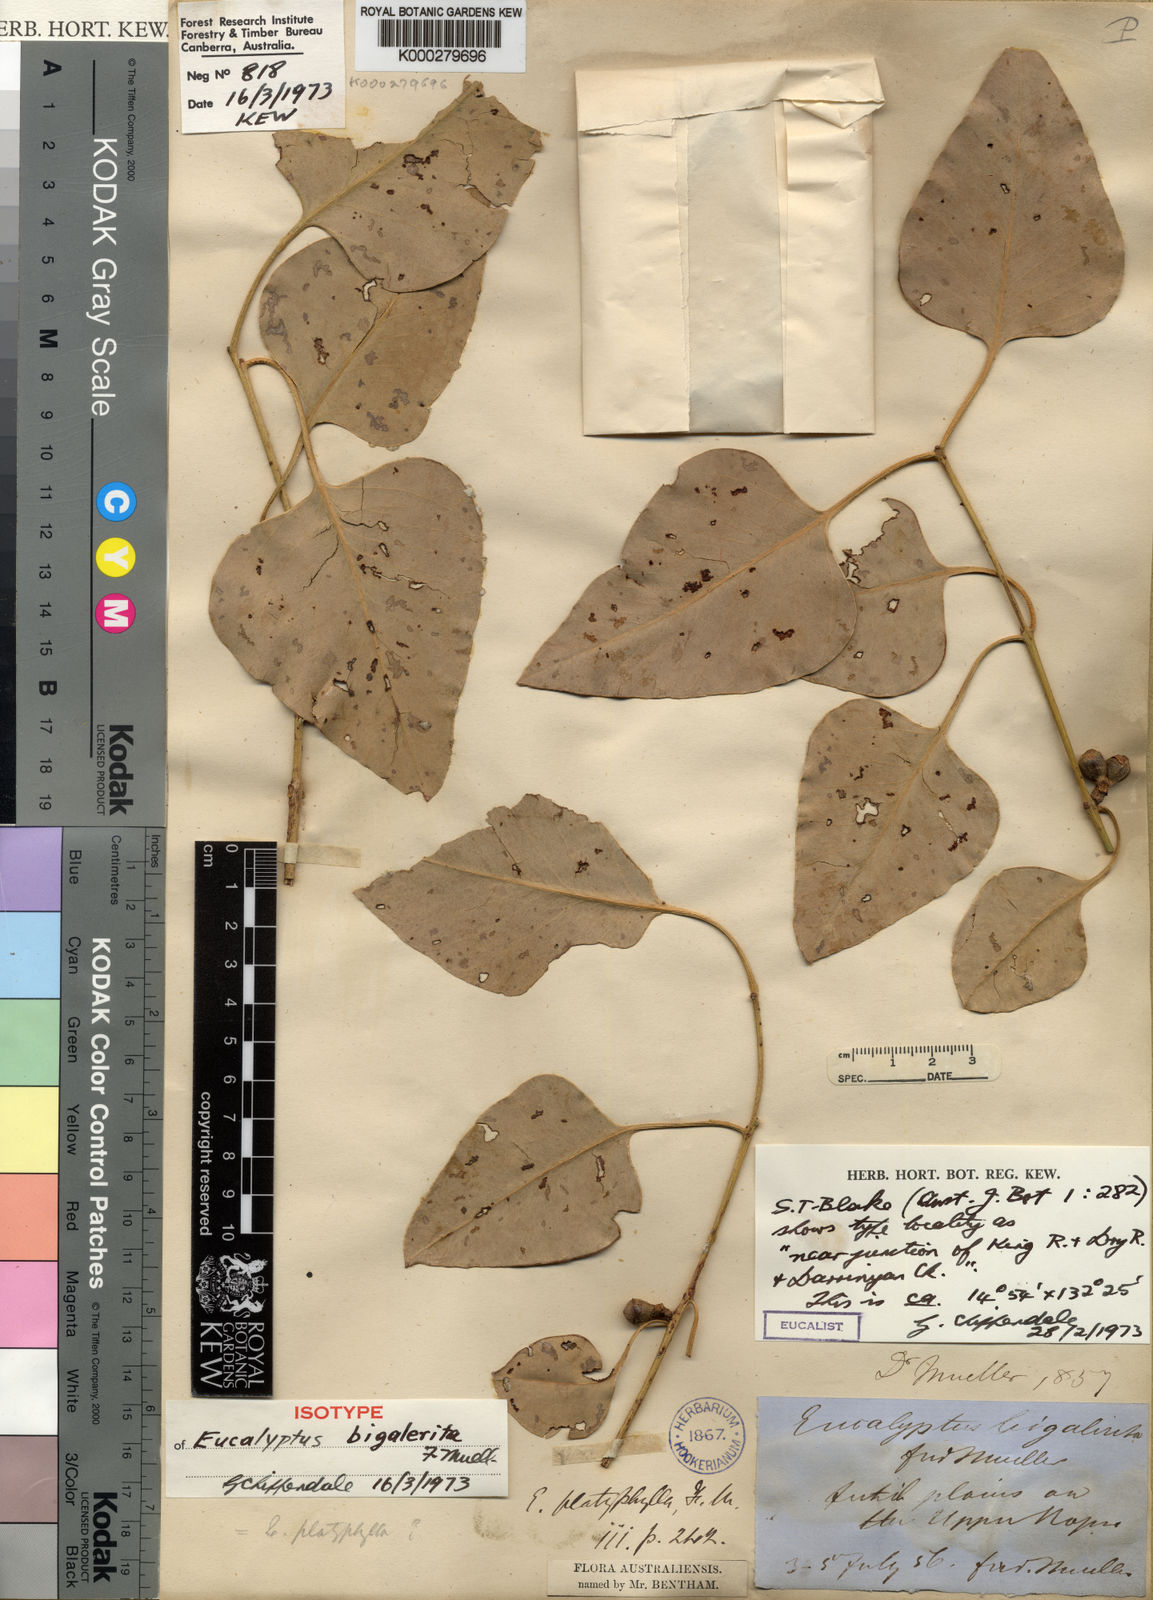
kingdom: Plantae
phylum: Tracheophyta
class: Magnoliopsida
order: Myrtales
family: Myrtaceae
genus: Eucalyptus
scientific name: Eucalyptus bigalerita
